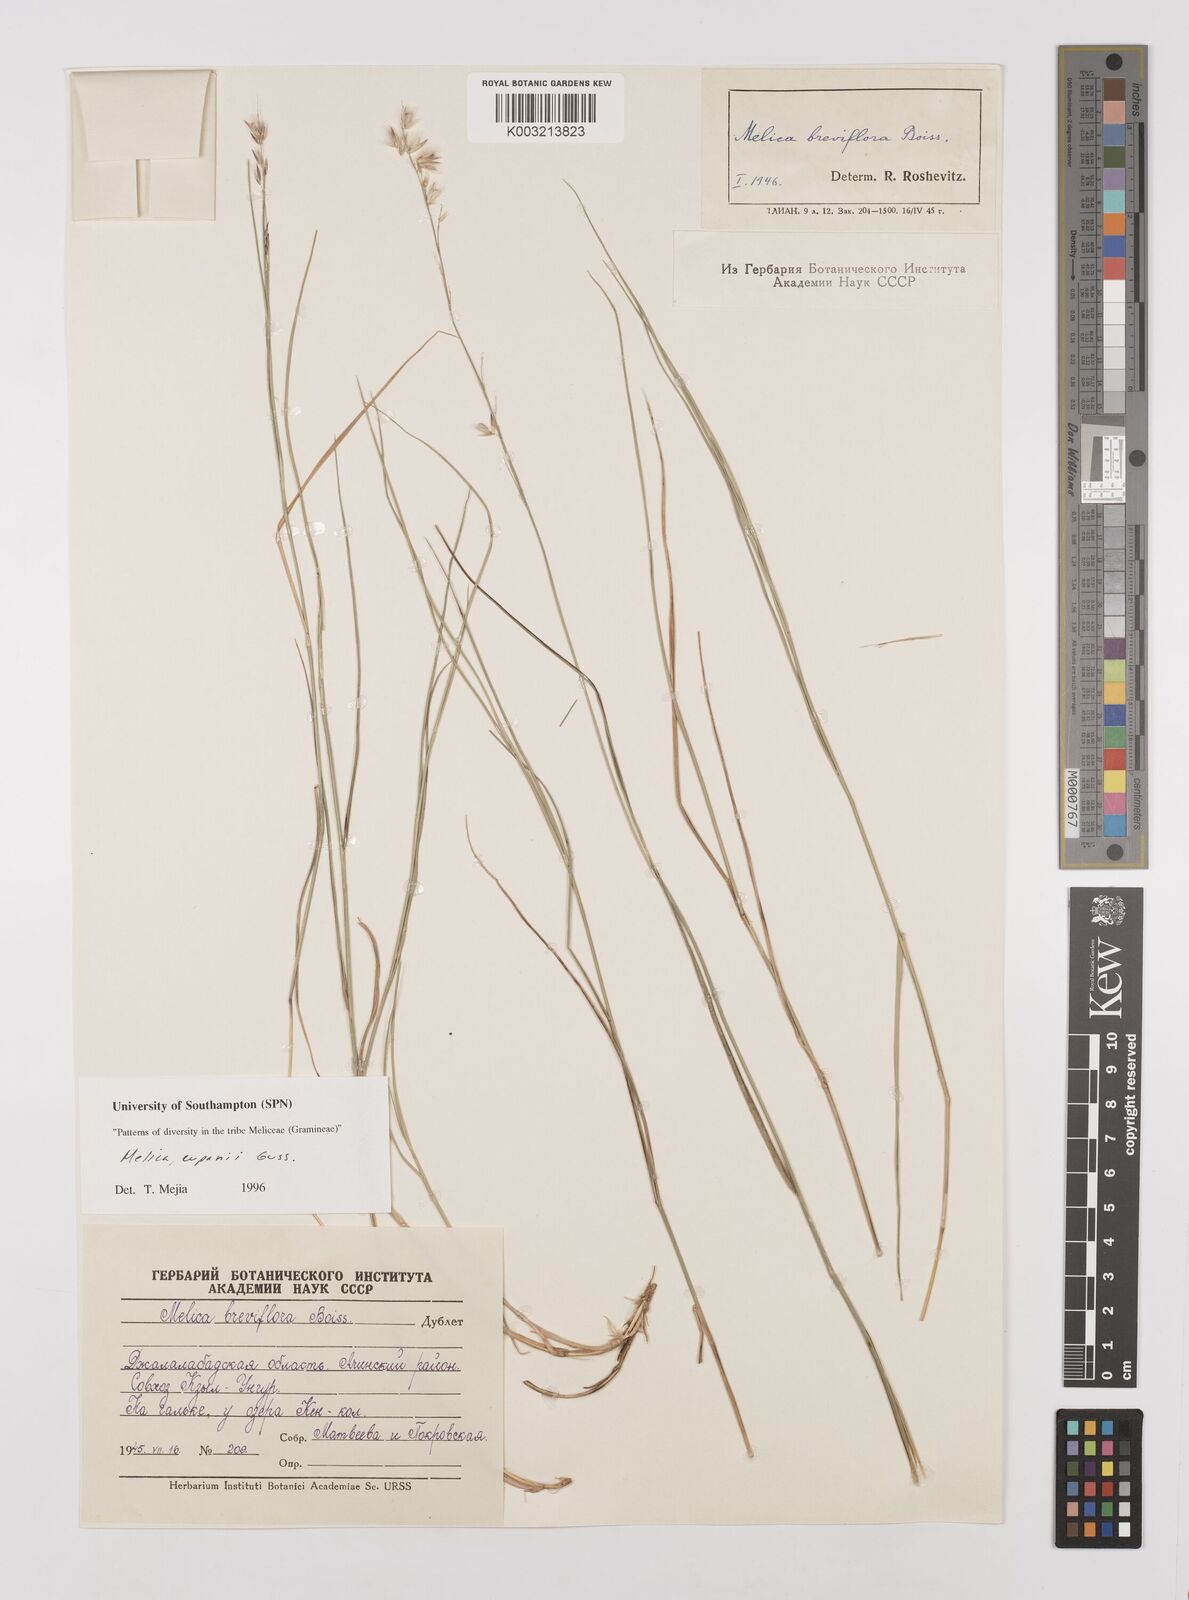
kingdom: Plantae
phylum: Tracheophyta
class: Liliopsida
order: Poales
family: Poaceae
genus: Melica
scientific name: Melica cupani
